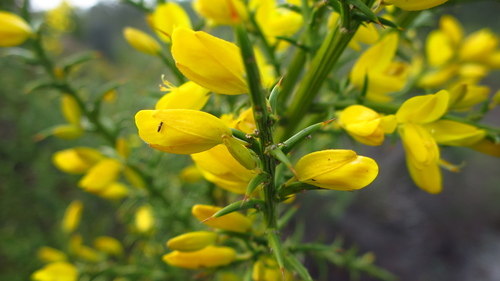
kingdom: Plantae
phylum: Tracheophyta
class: Magnoliopsida
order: Fabales
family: Fabaceae
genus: Ulex
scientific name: Ulex parviflorus
